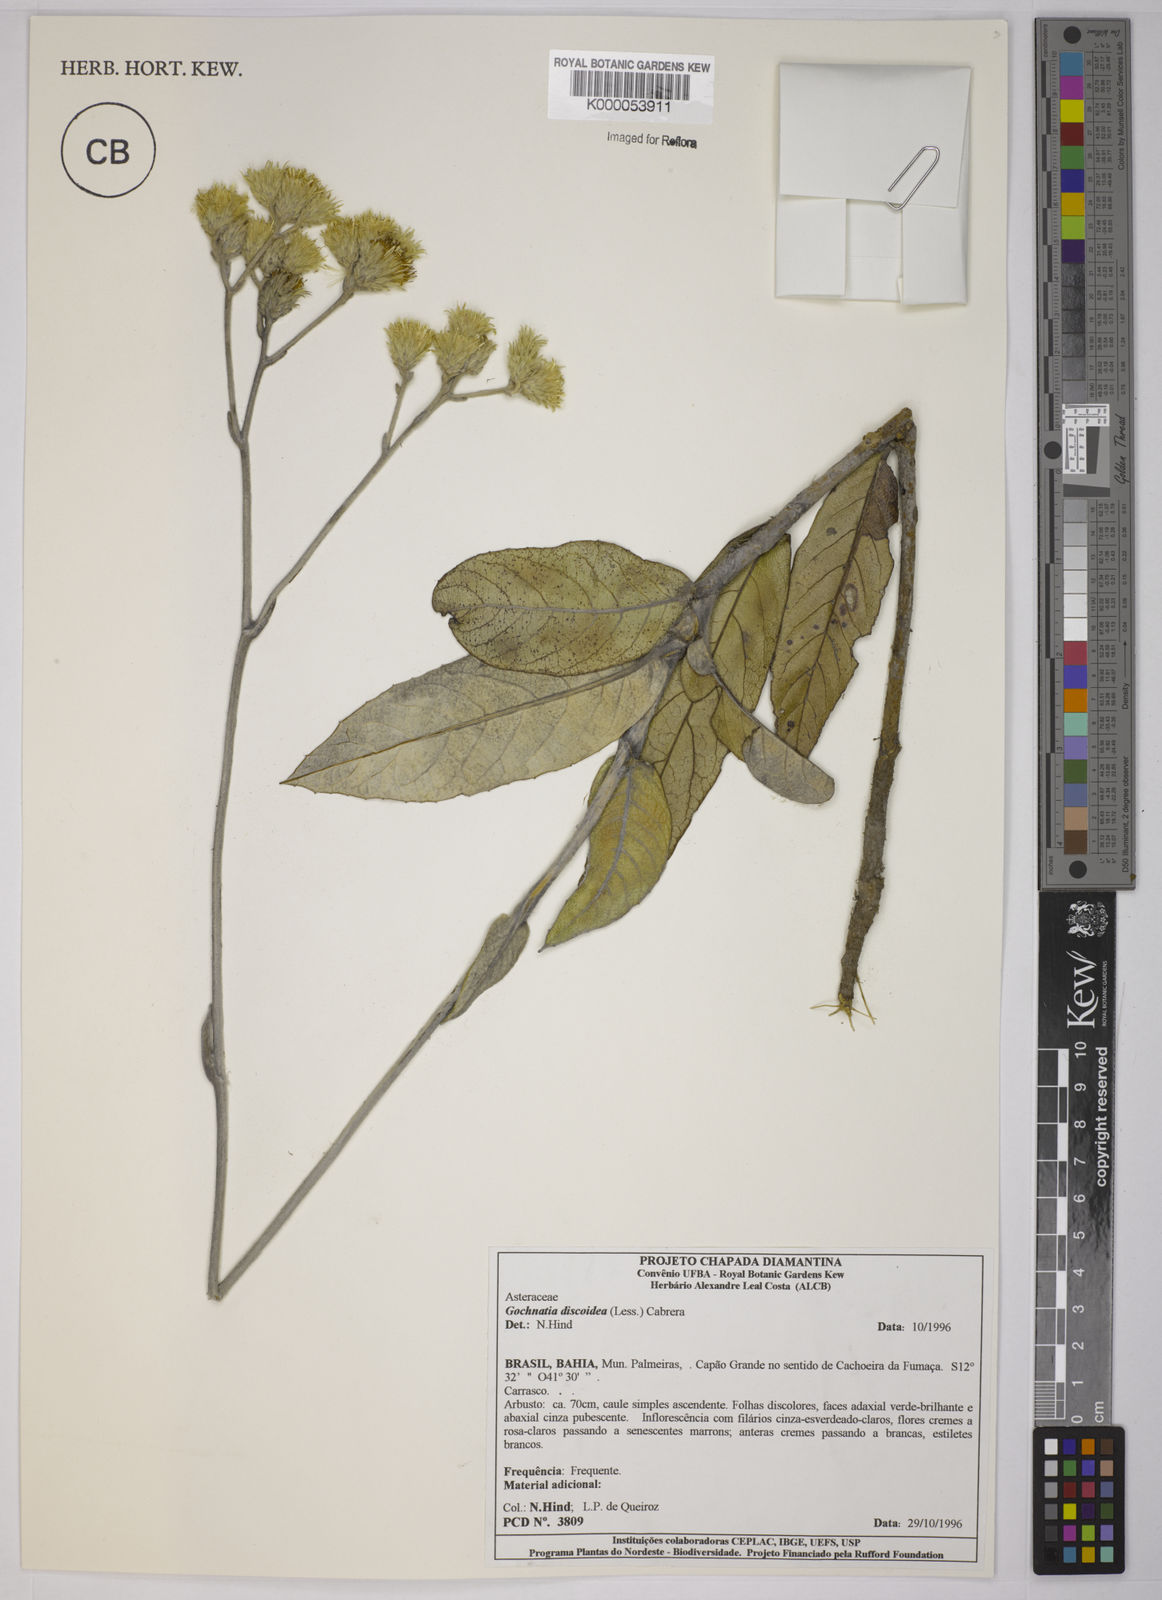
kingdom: Plantae
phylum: Tracheophyta
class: Magnoliopsida
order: Asterales
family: Asteraceae
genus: Richterago
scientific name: Richterago discoidea
